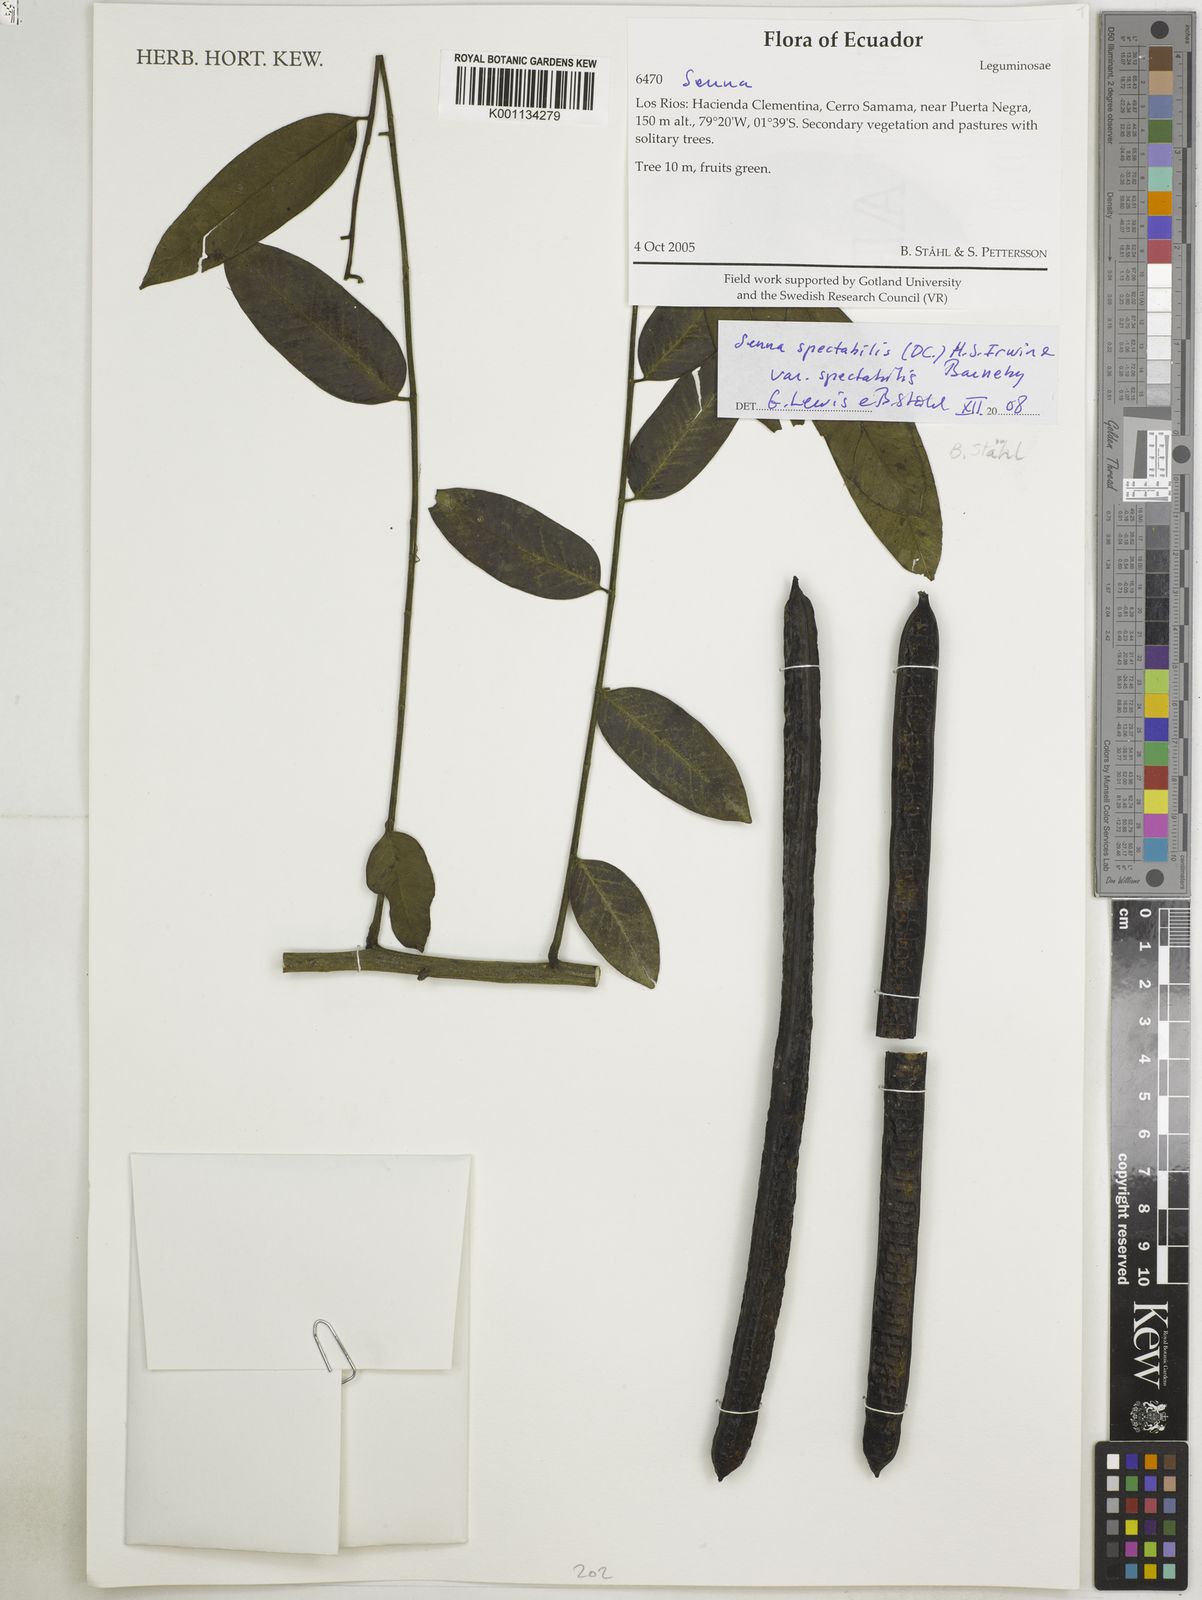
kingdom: Plantae
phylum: Tracheophyta
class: Magnoliopsida
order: Fabales
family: Fabaceae
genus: Senna
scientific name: Senna spectabilis
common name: Casia amarilla
